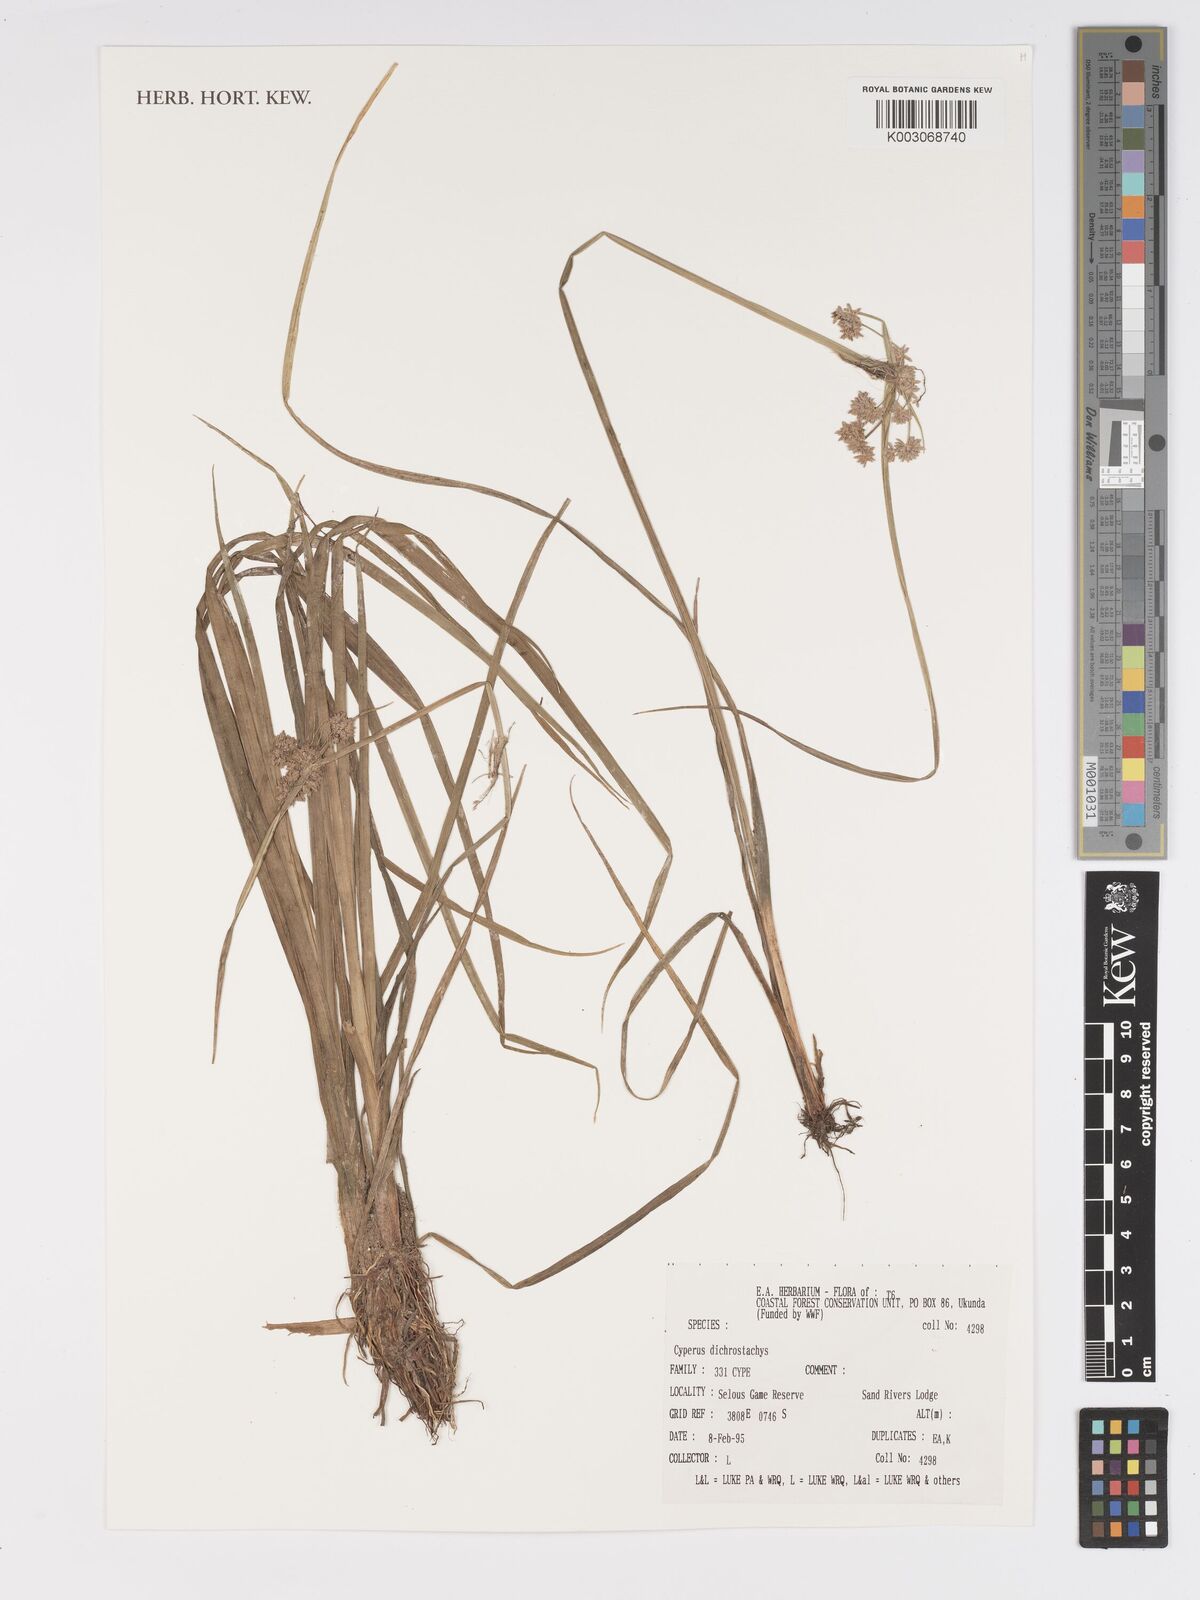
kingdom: Plantae
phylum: Tracheophyta
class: Liliopsida
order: Poales
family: Cyperaceae
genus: Cyperus
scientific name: Cyperus dichrostachyus
